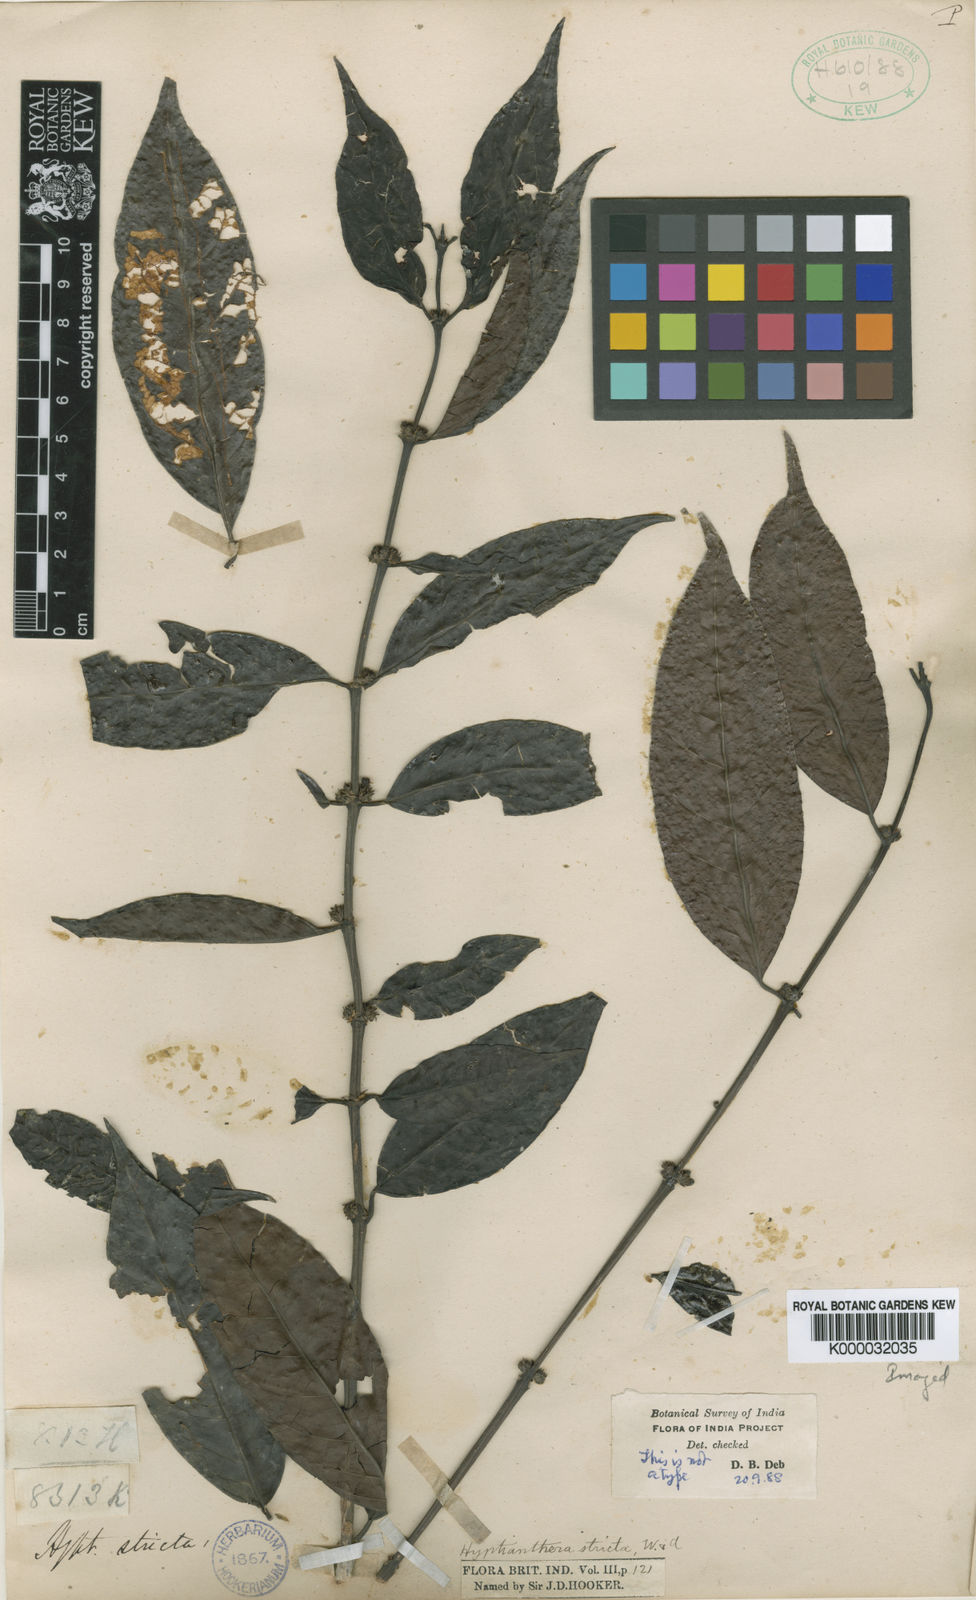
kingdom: Plantae
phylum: Tracheophyta
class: Magnoliopsida
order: Gentianales
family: Rubiaceae
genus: Hyptianthera
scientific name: Hyptianthera stricta
